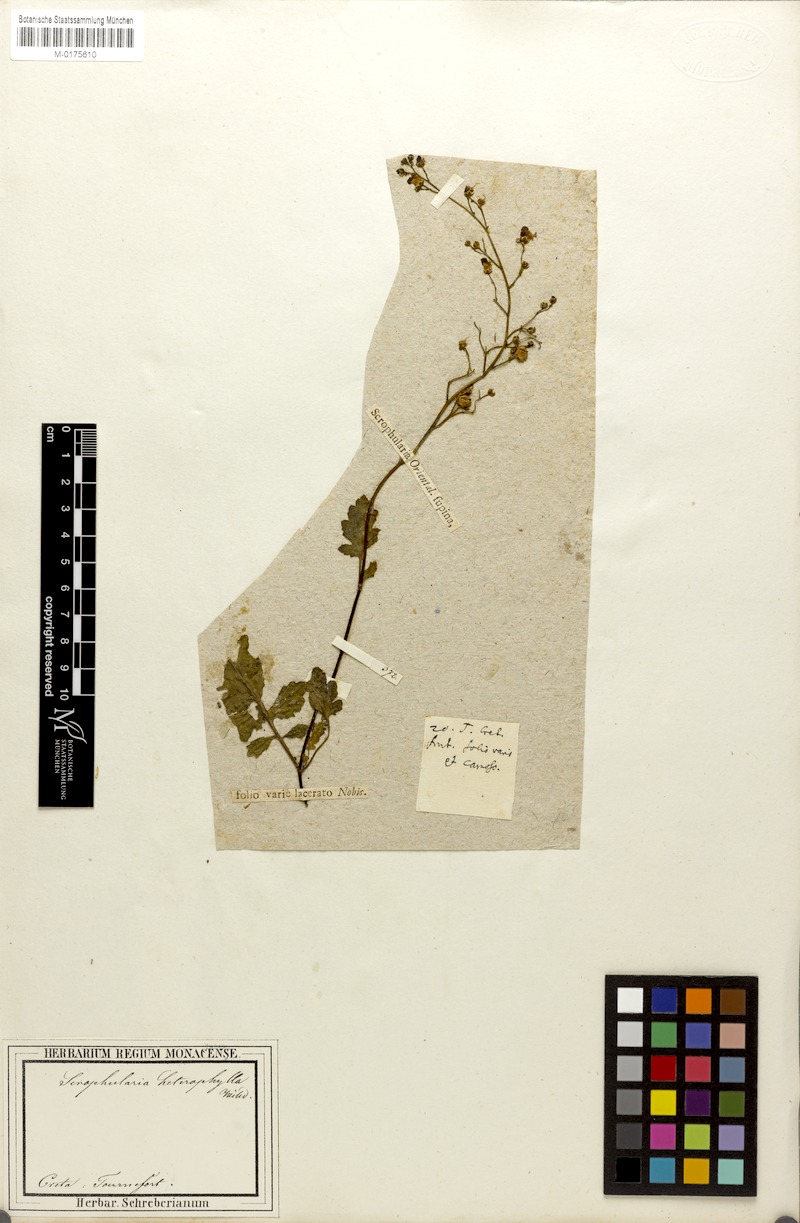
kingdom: Plantae
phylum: Tracheophyta
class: Magnoliopsida
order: Lamiales
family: Scrophulariaceae
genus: Scrophularia
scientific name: Scrophularia heterophylla
